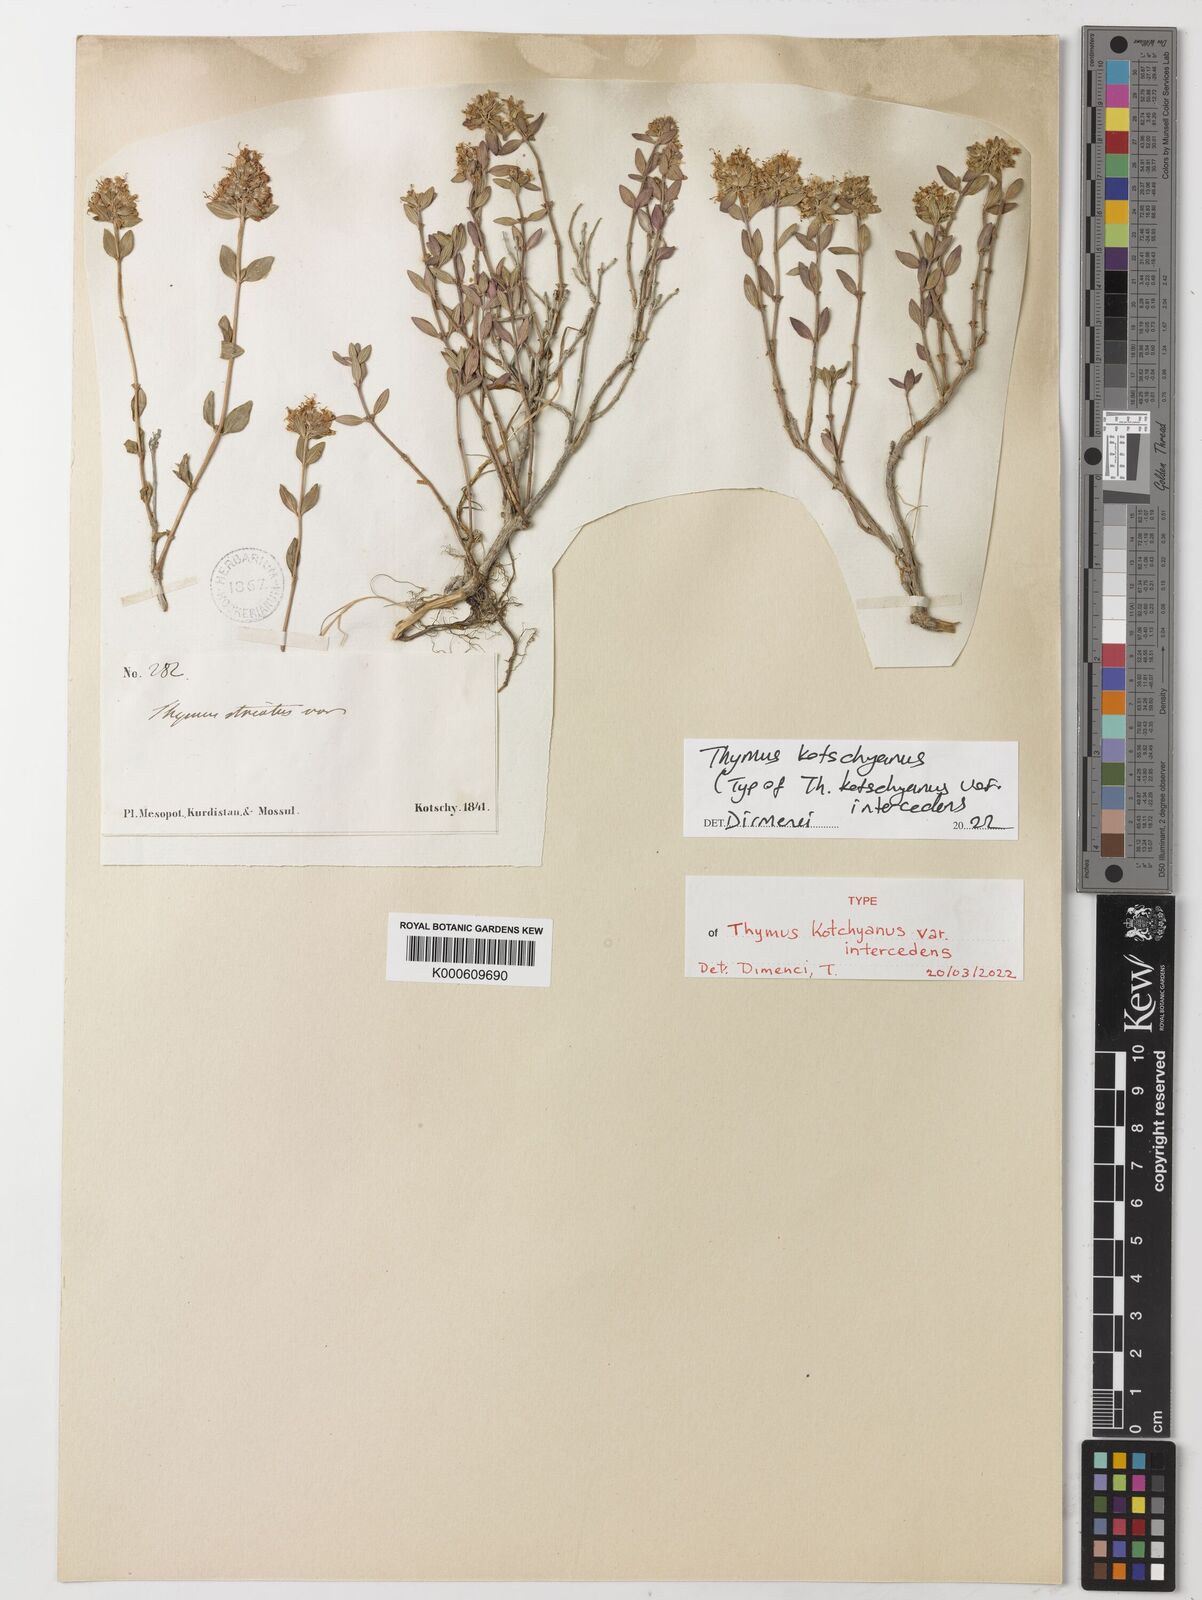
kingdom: Plantae
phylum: Tracheophyta
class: Magnoliopsida
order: Lamiales
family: Lamiaceae
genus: Thymus
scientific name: Thymus kotschyanus
